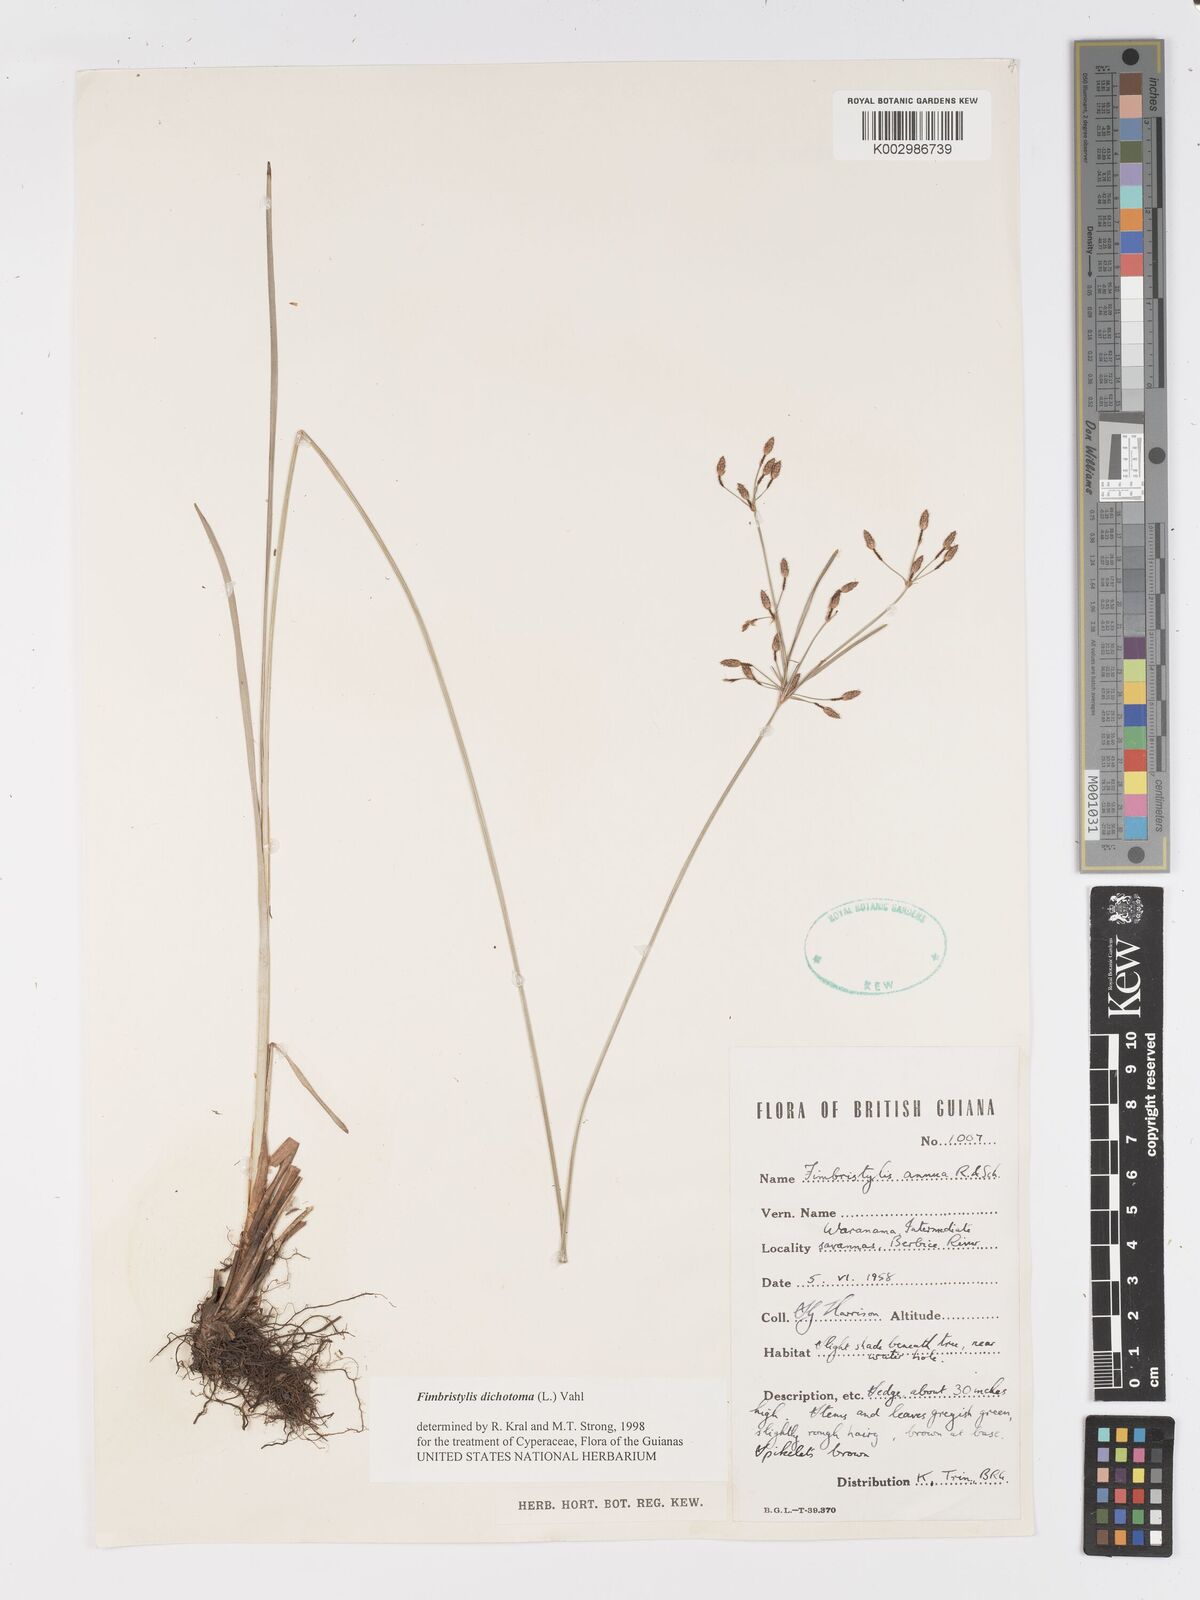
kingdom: Plantae
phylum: Tracheophyta
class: Liliopsida
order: Poales
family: Cyperaceae
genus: Fimbristylis
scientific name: Fimbristylis dichotoma
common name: Forked fimbry
